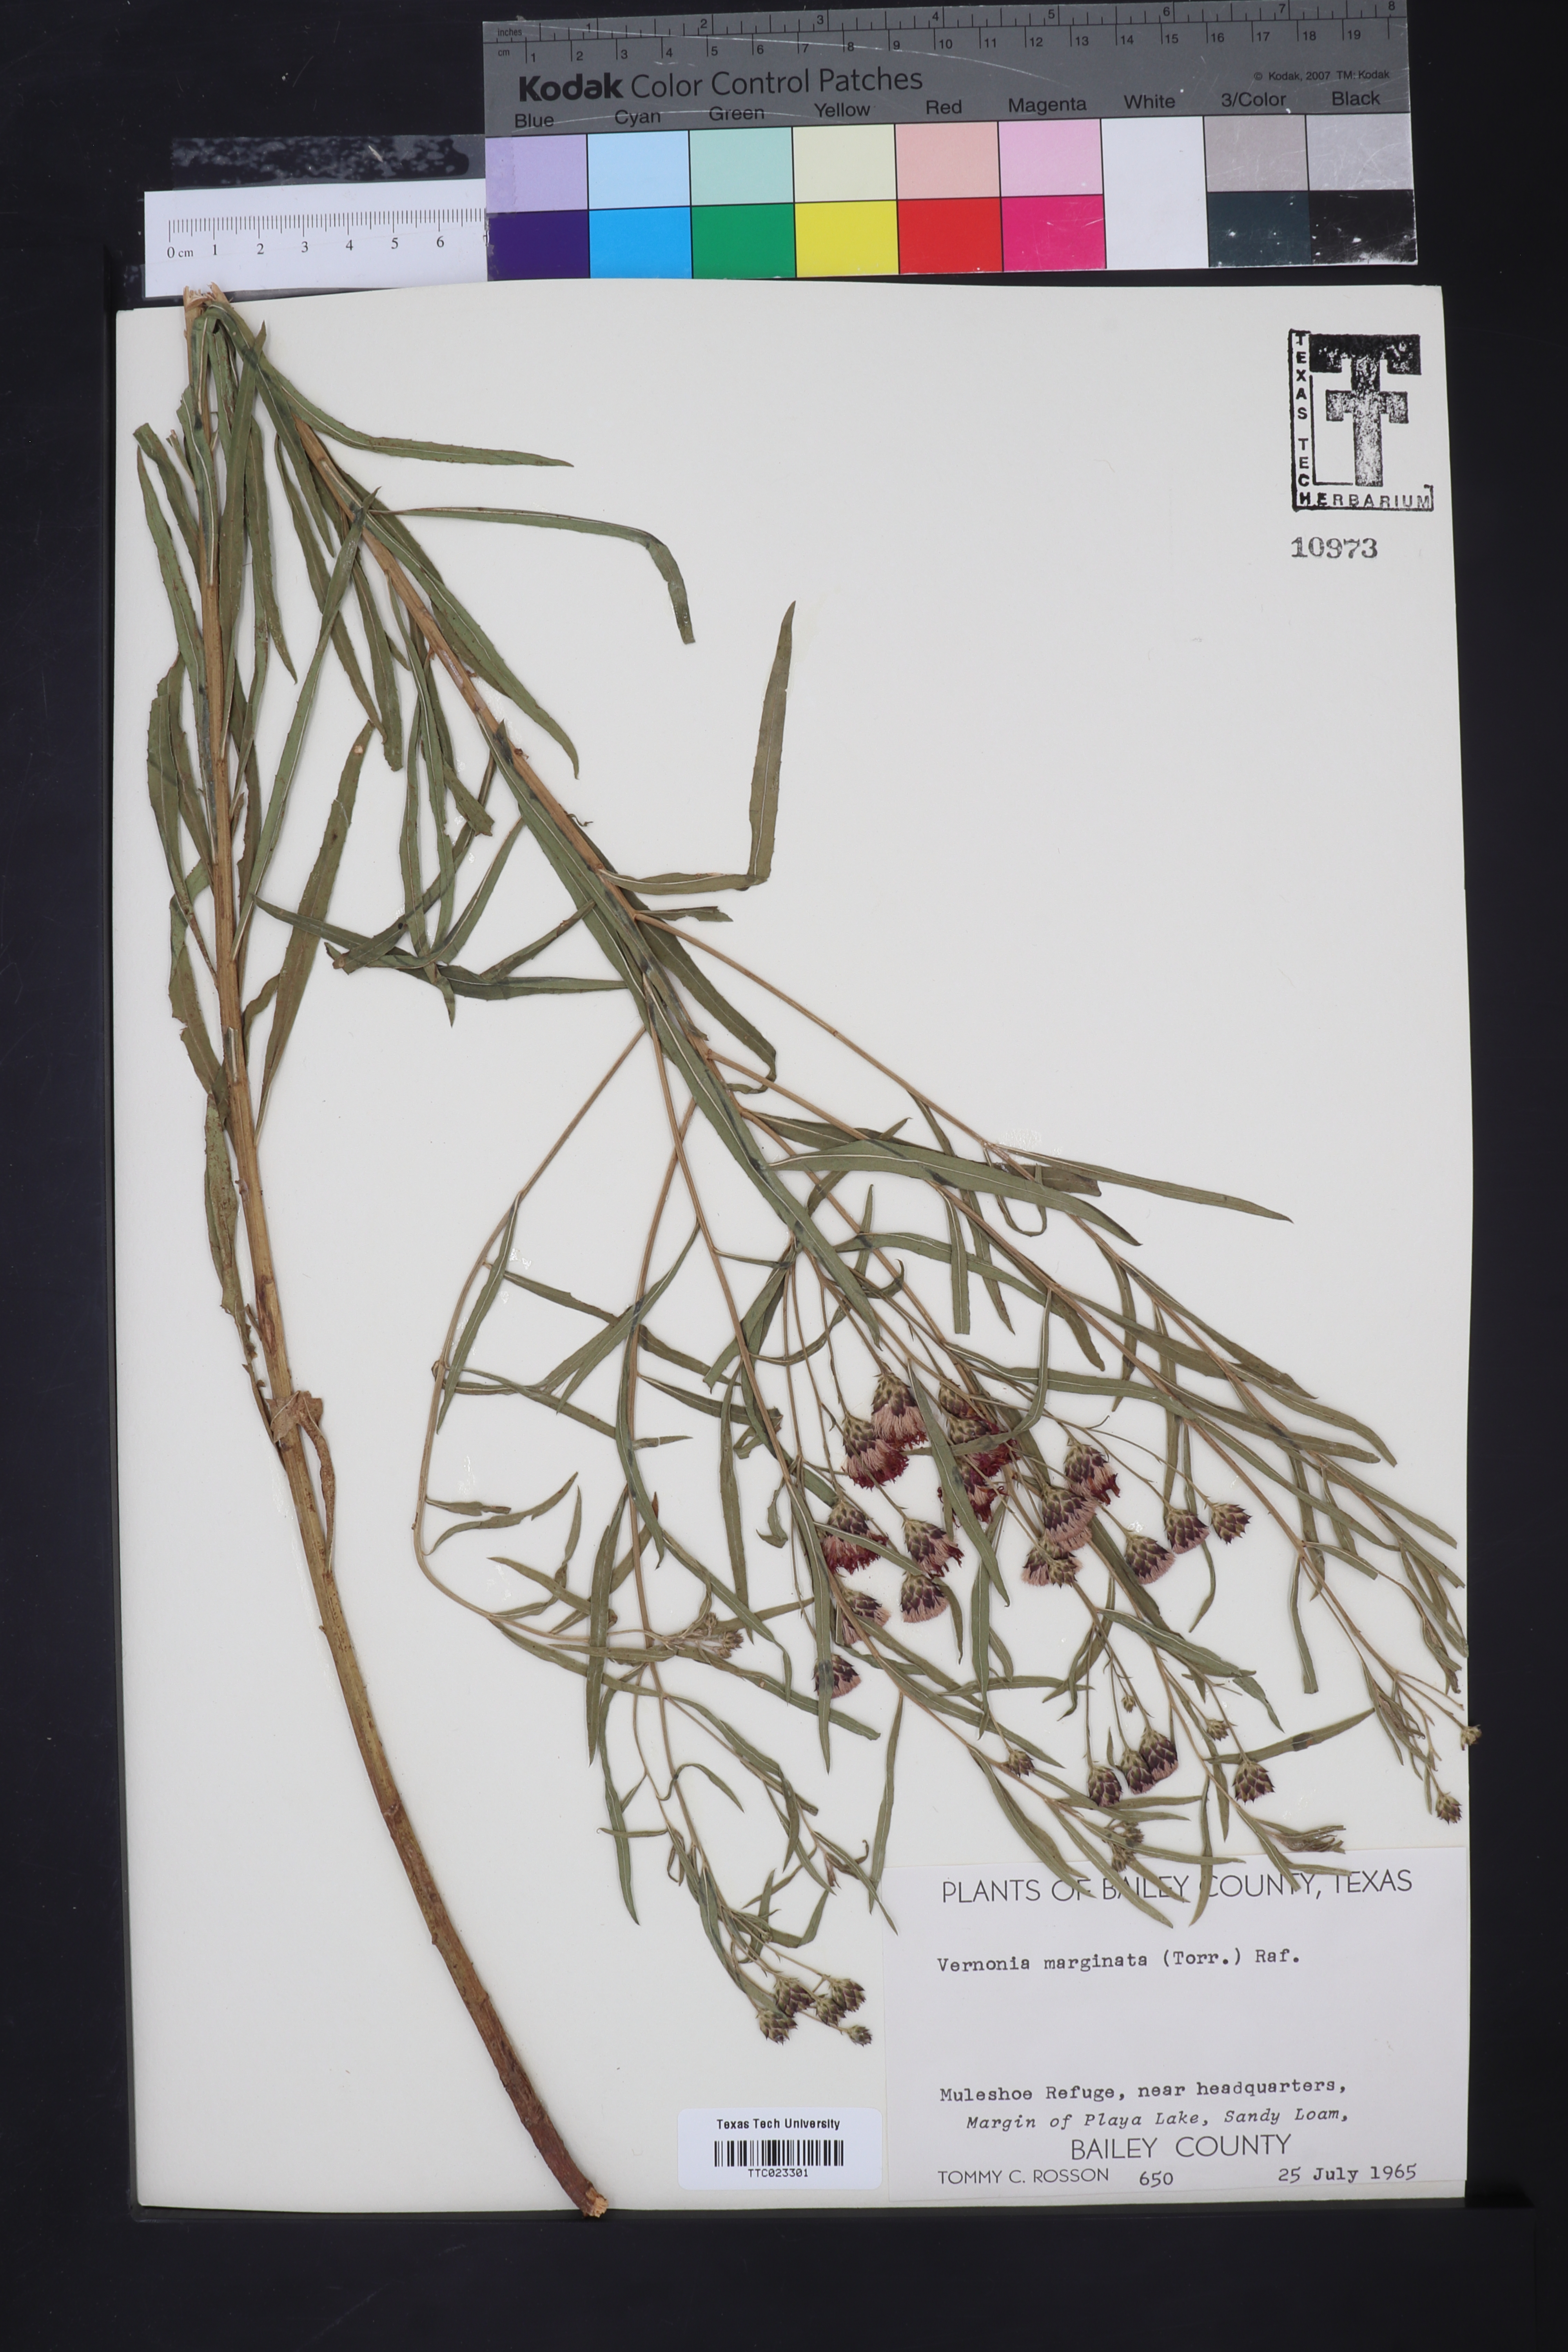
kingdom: Plantae
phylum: Tracheophyta
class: Magnoliopsida
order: Asterales
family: Asteraceae
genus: Vernonia
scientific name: Vernonia baldwinii
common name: Western ironweed
